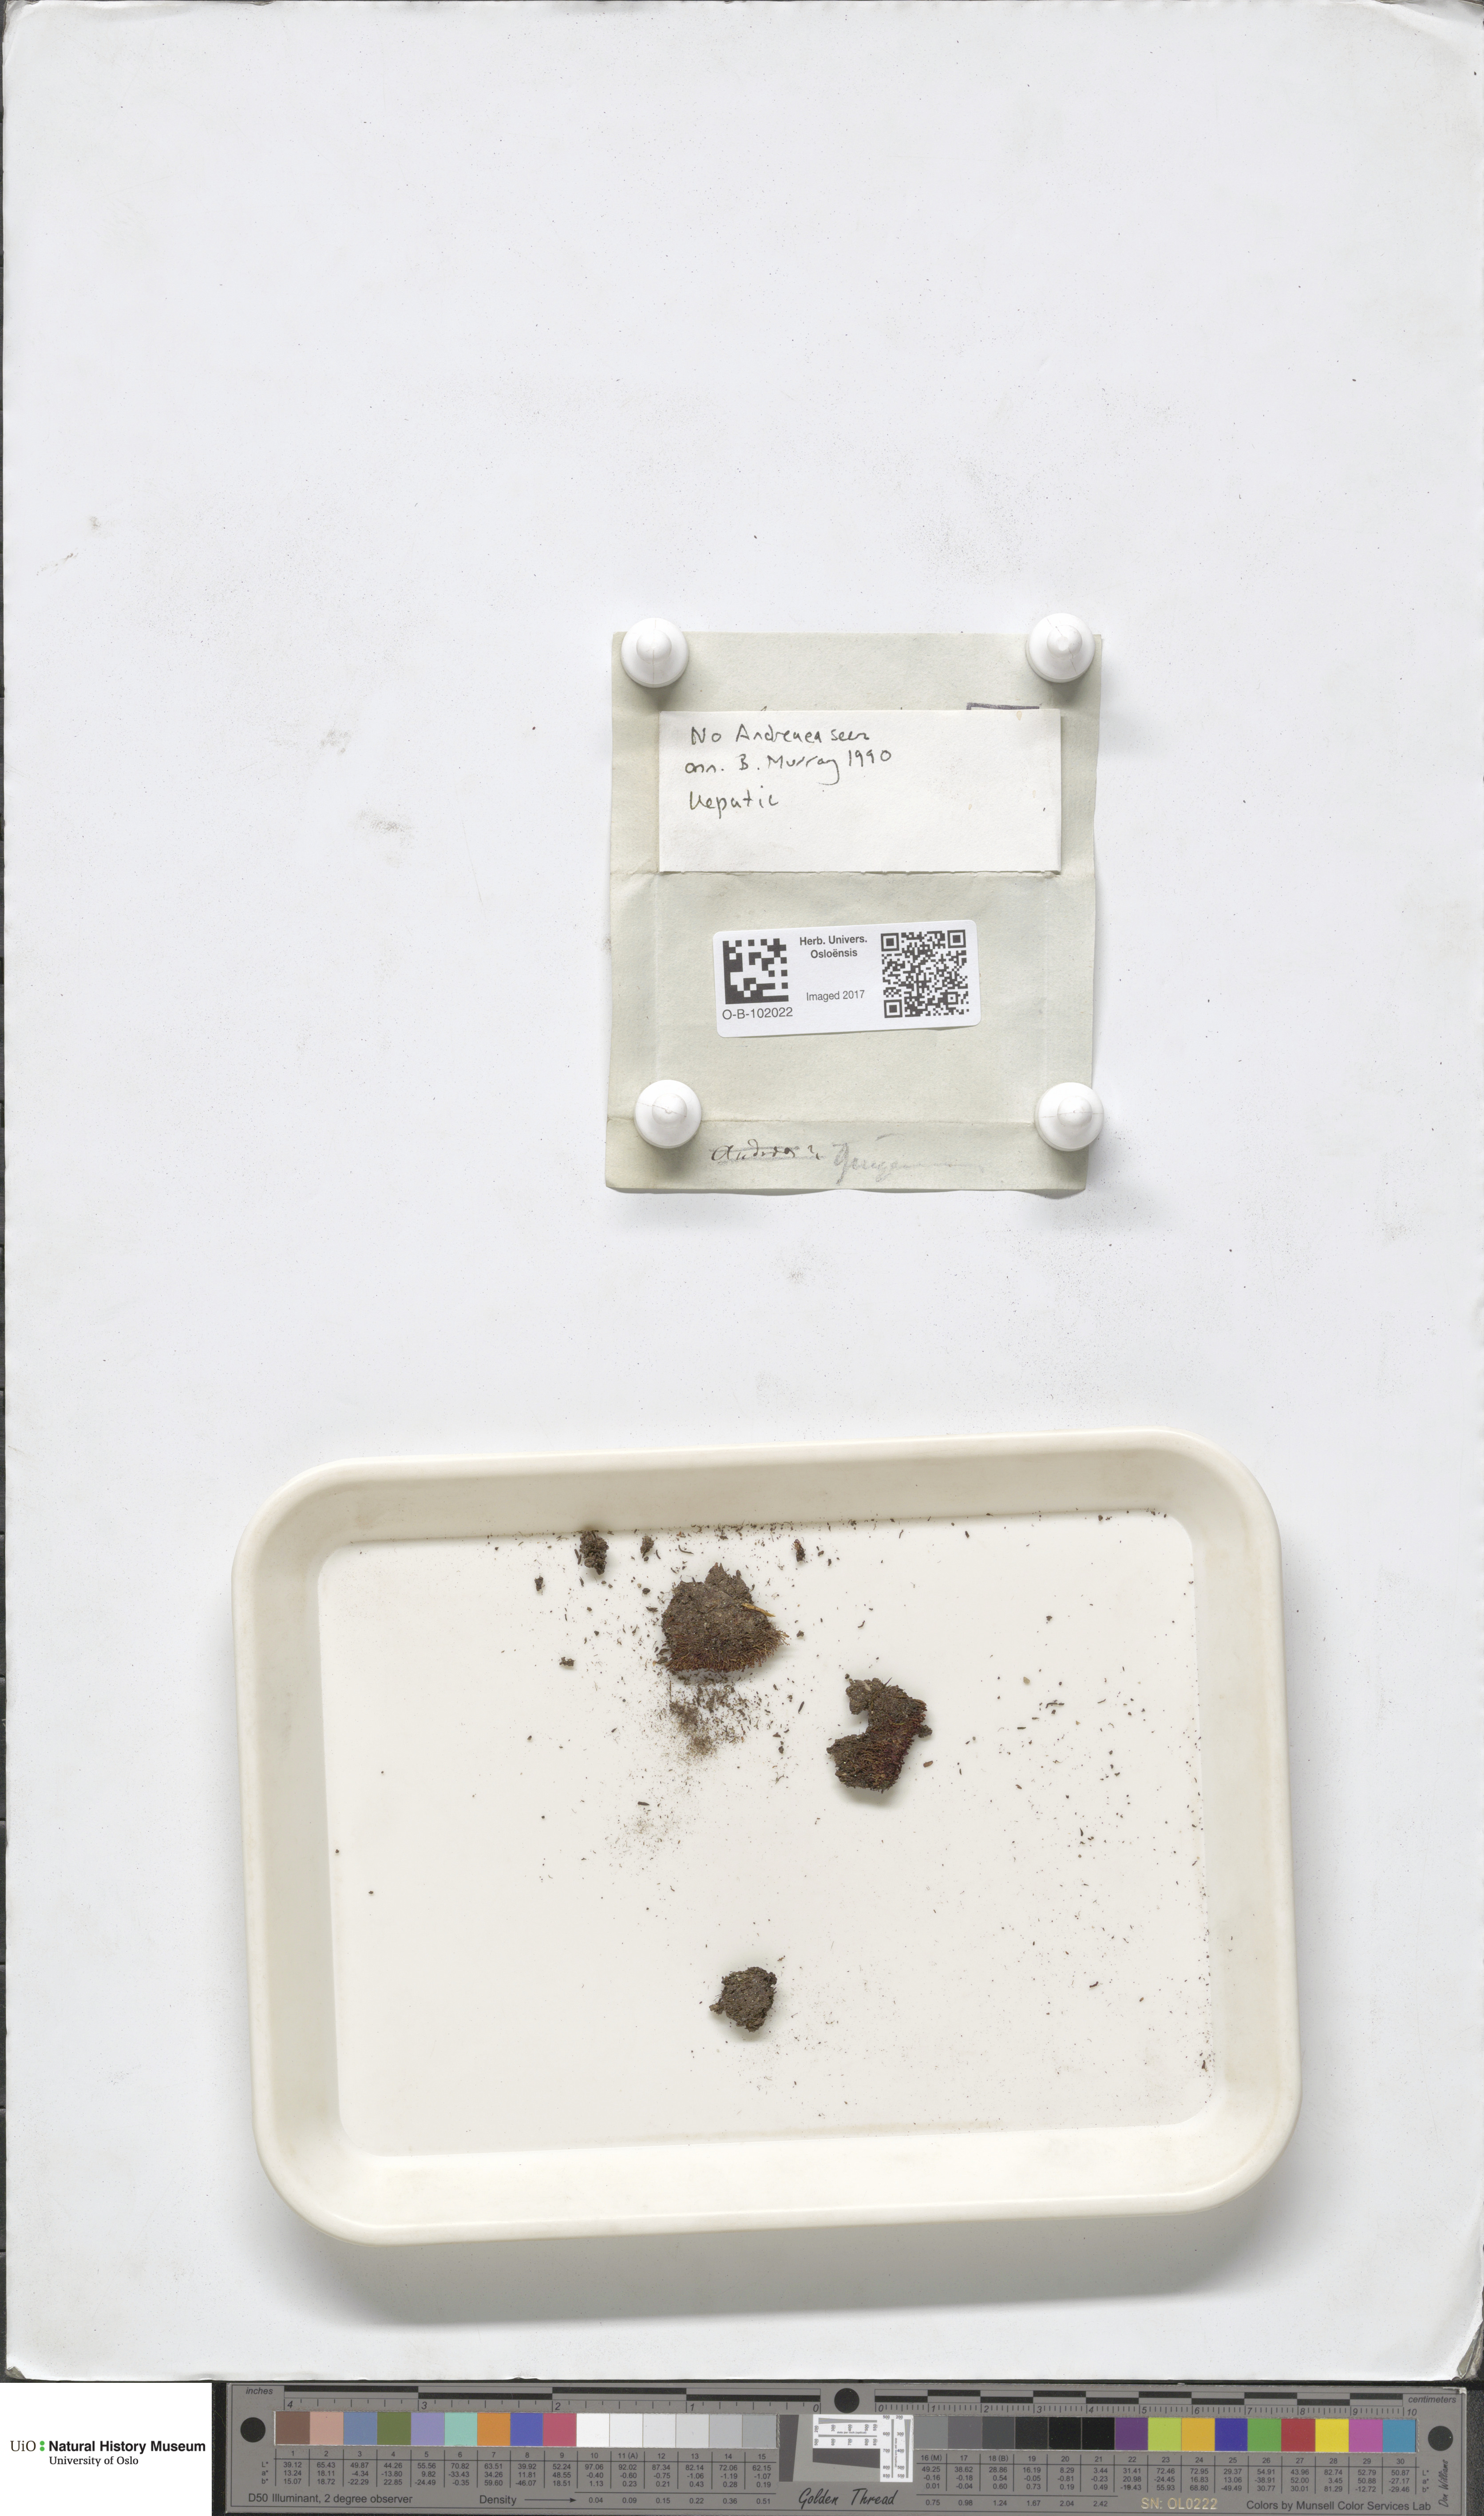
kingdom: Plantae
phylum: Bryophyta
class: Andreaeopsida
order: Andreaeales
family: Andreaeaceae
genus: Andreaea
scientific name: Andreaea
